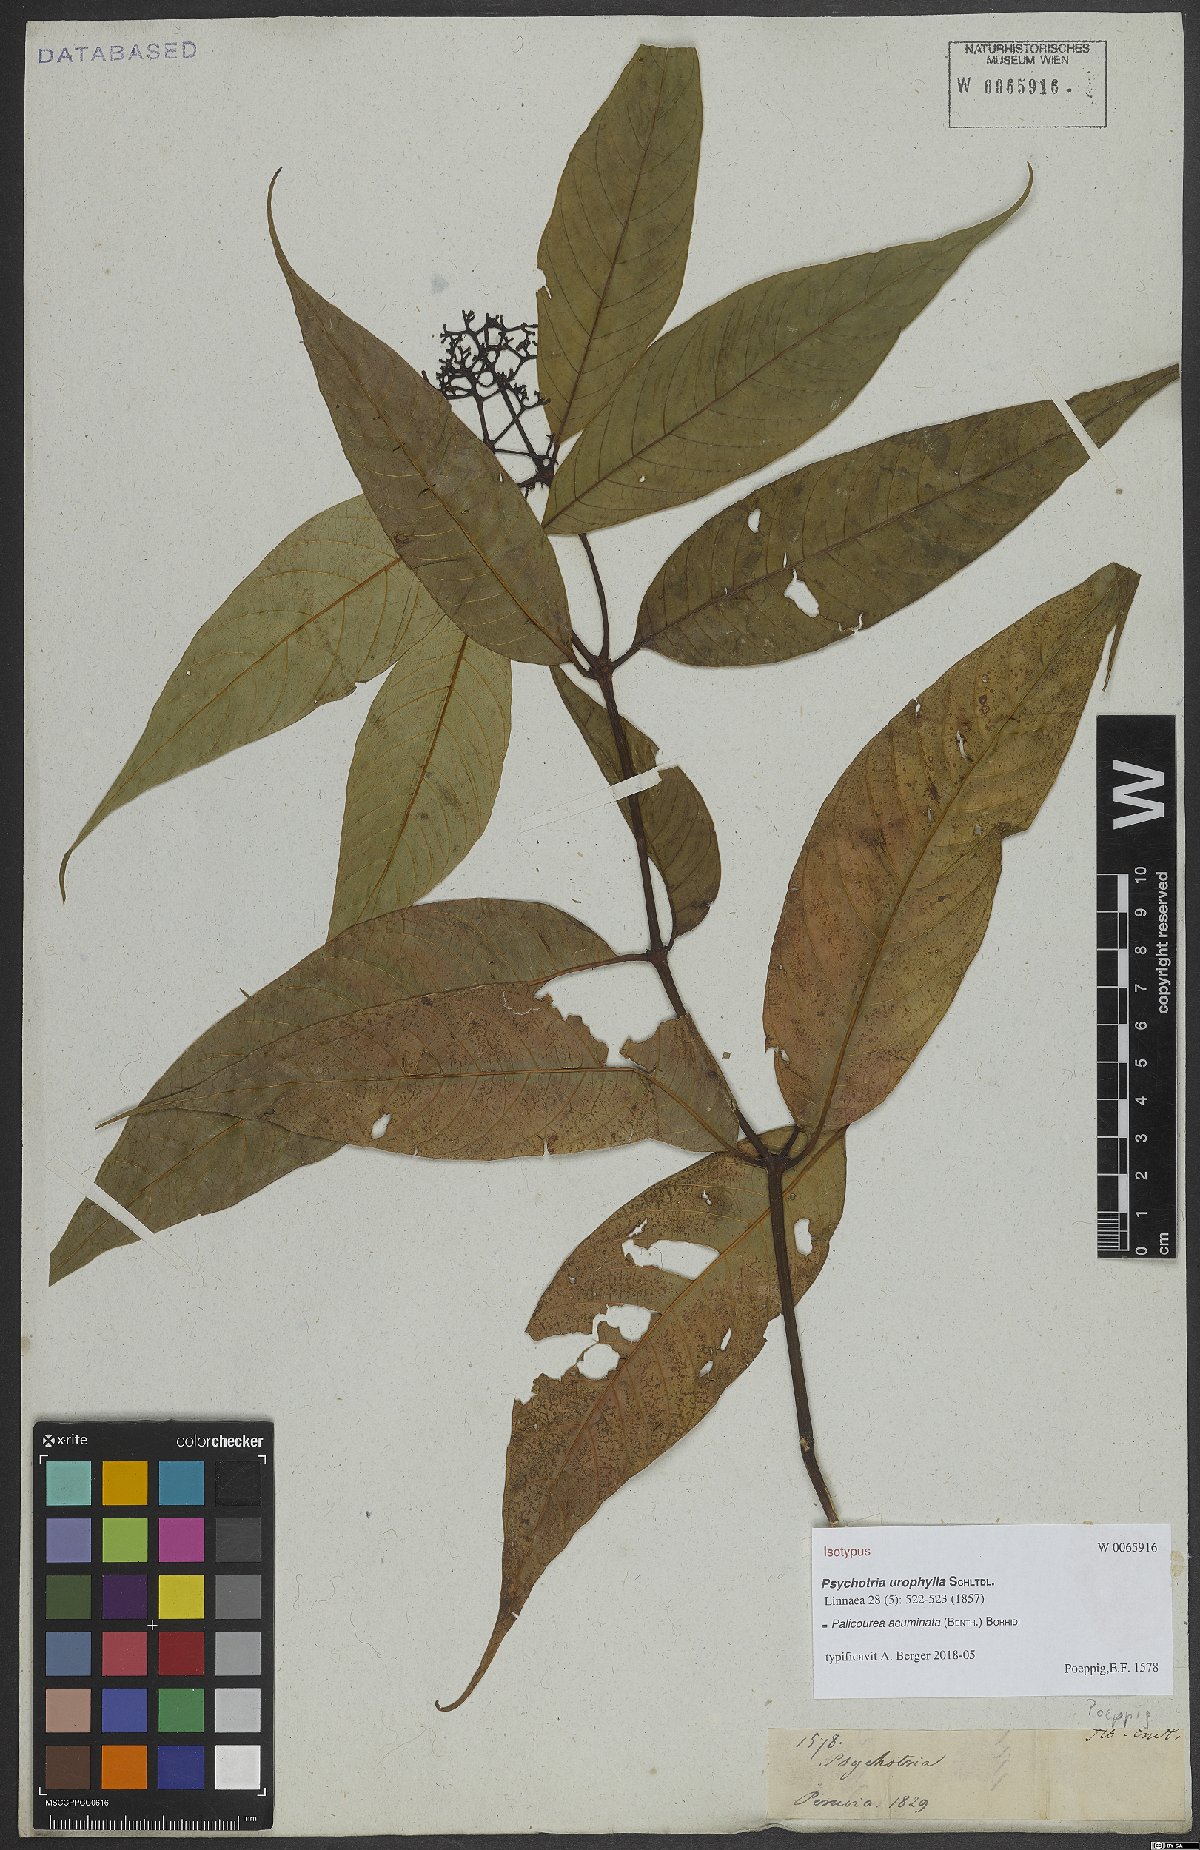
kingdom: Plantae
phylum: Tracheophyta
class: Magnoliopsida
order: Gentianales
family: Rubiaceae
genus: Palicourea
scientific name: Palicourea acuminata
